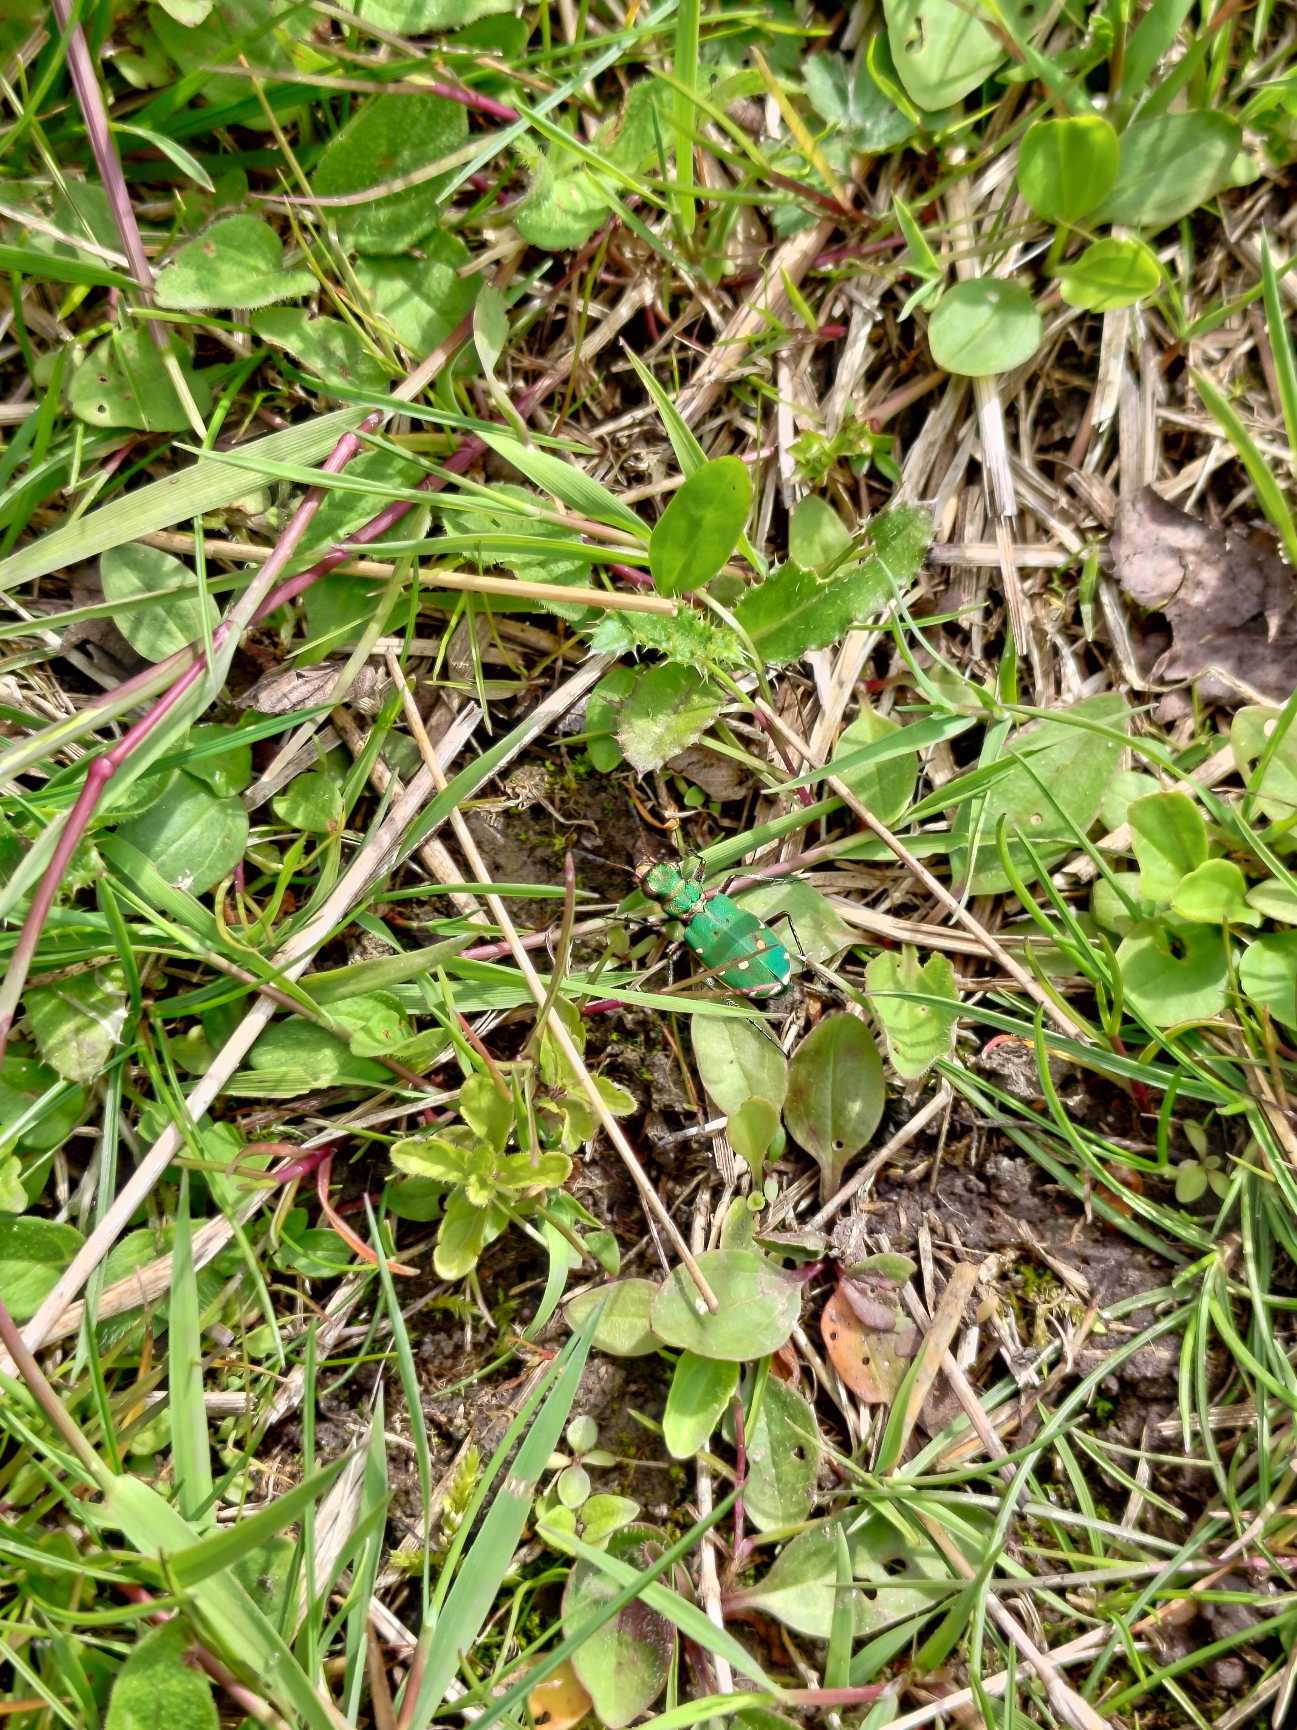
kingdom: Animalia
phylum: Arthropoda
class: Insecta
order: Coleoptera
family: Carabidae
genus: Cicindela
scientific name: Cicindela campestris
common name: Grøn sandspringer
